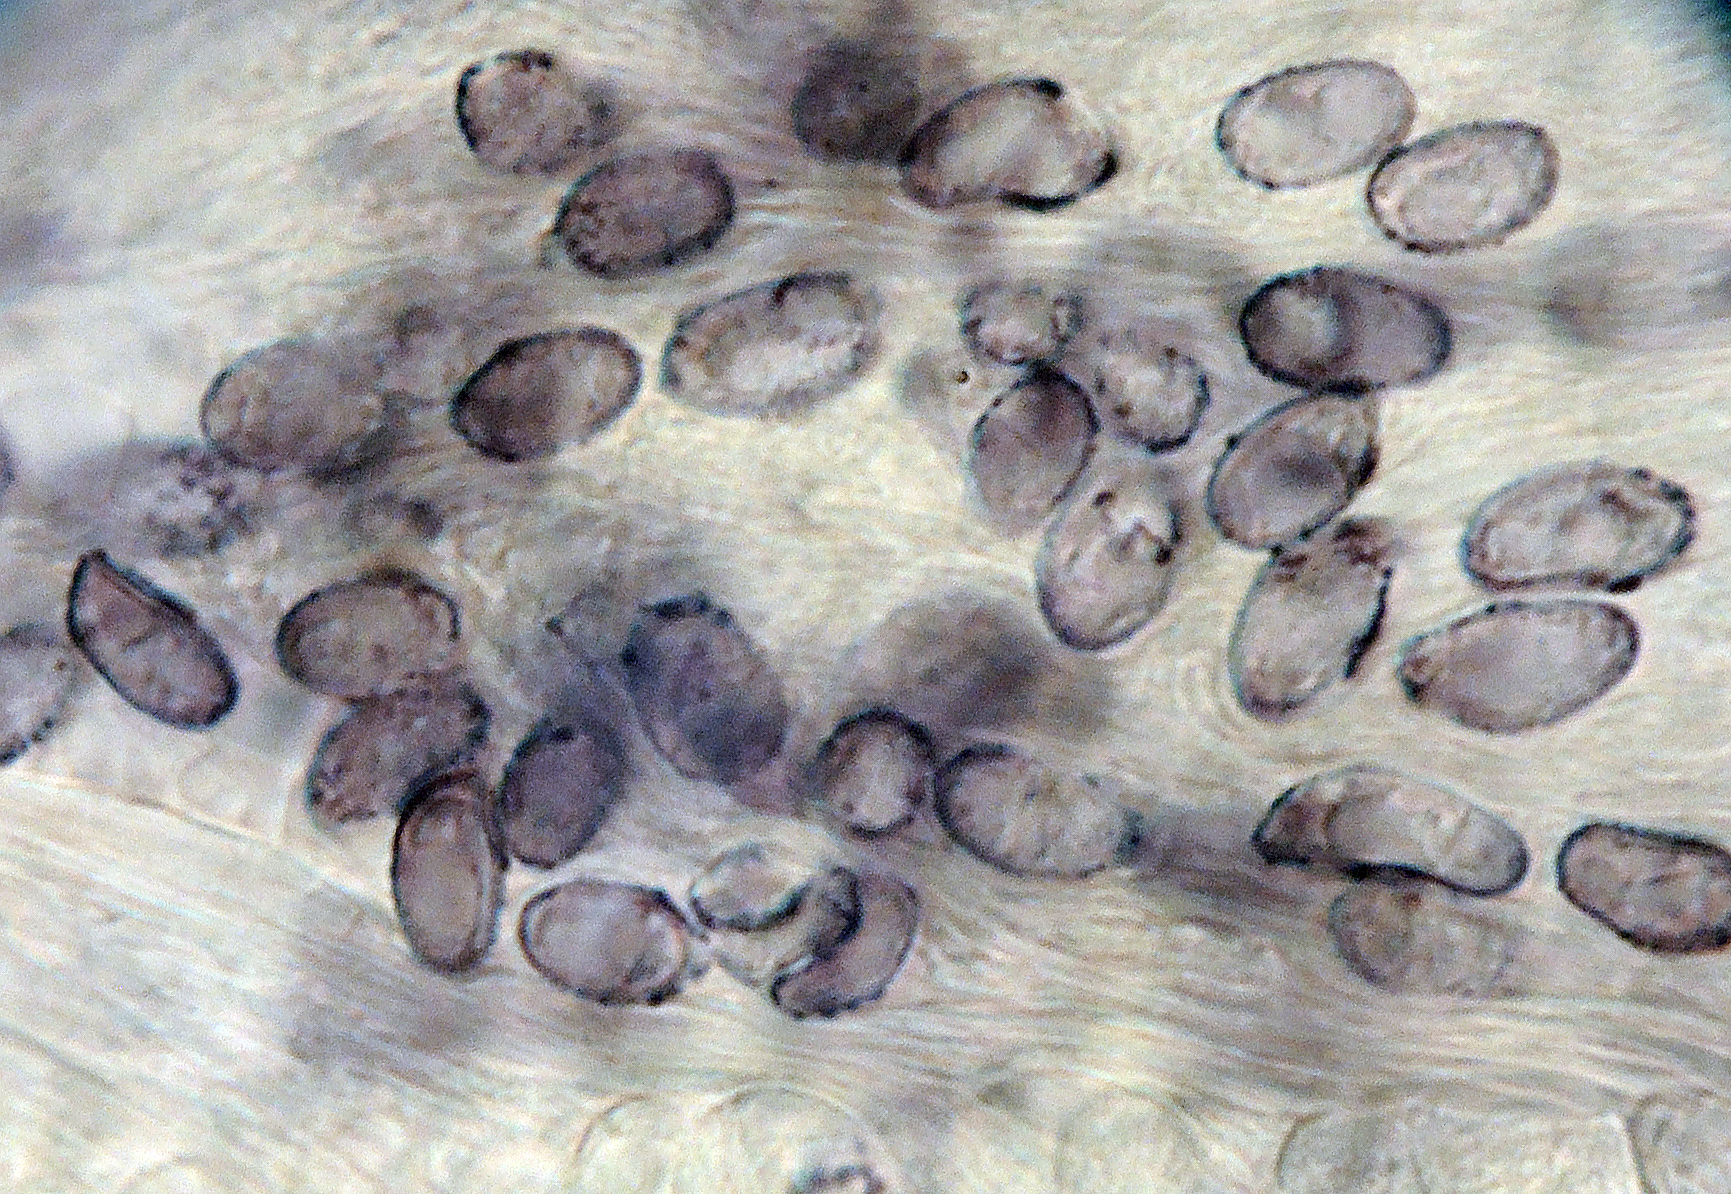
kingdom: Fungi
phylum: Basidiomycota
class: Agaricomycetes
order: Agaricales
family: Tricholomataceae
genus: Melanoleuca
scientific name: Melanoleuca exscissa
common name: gusten munkehat
